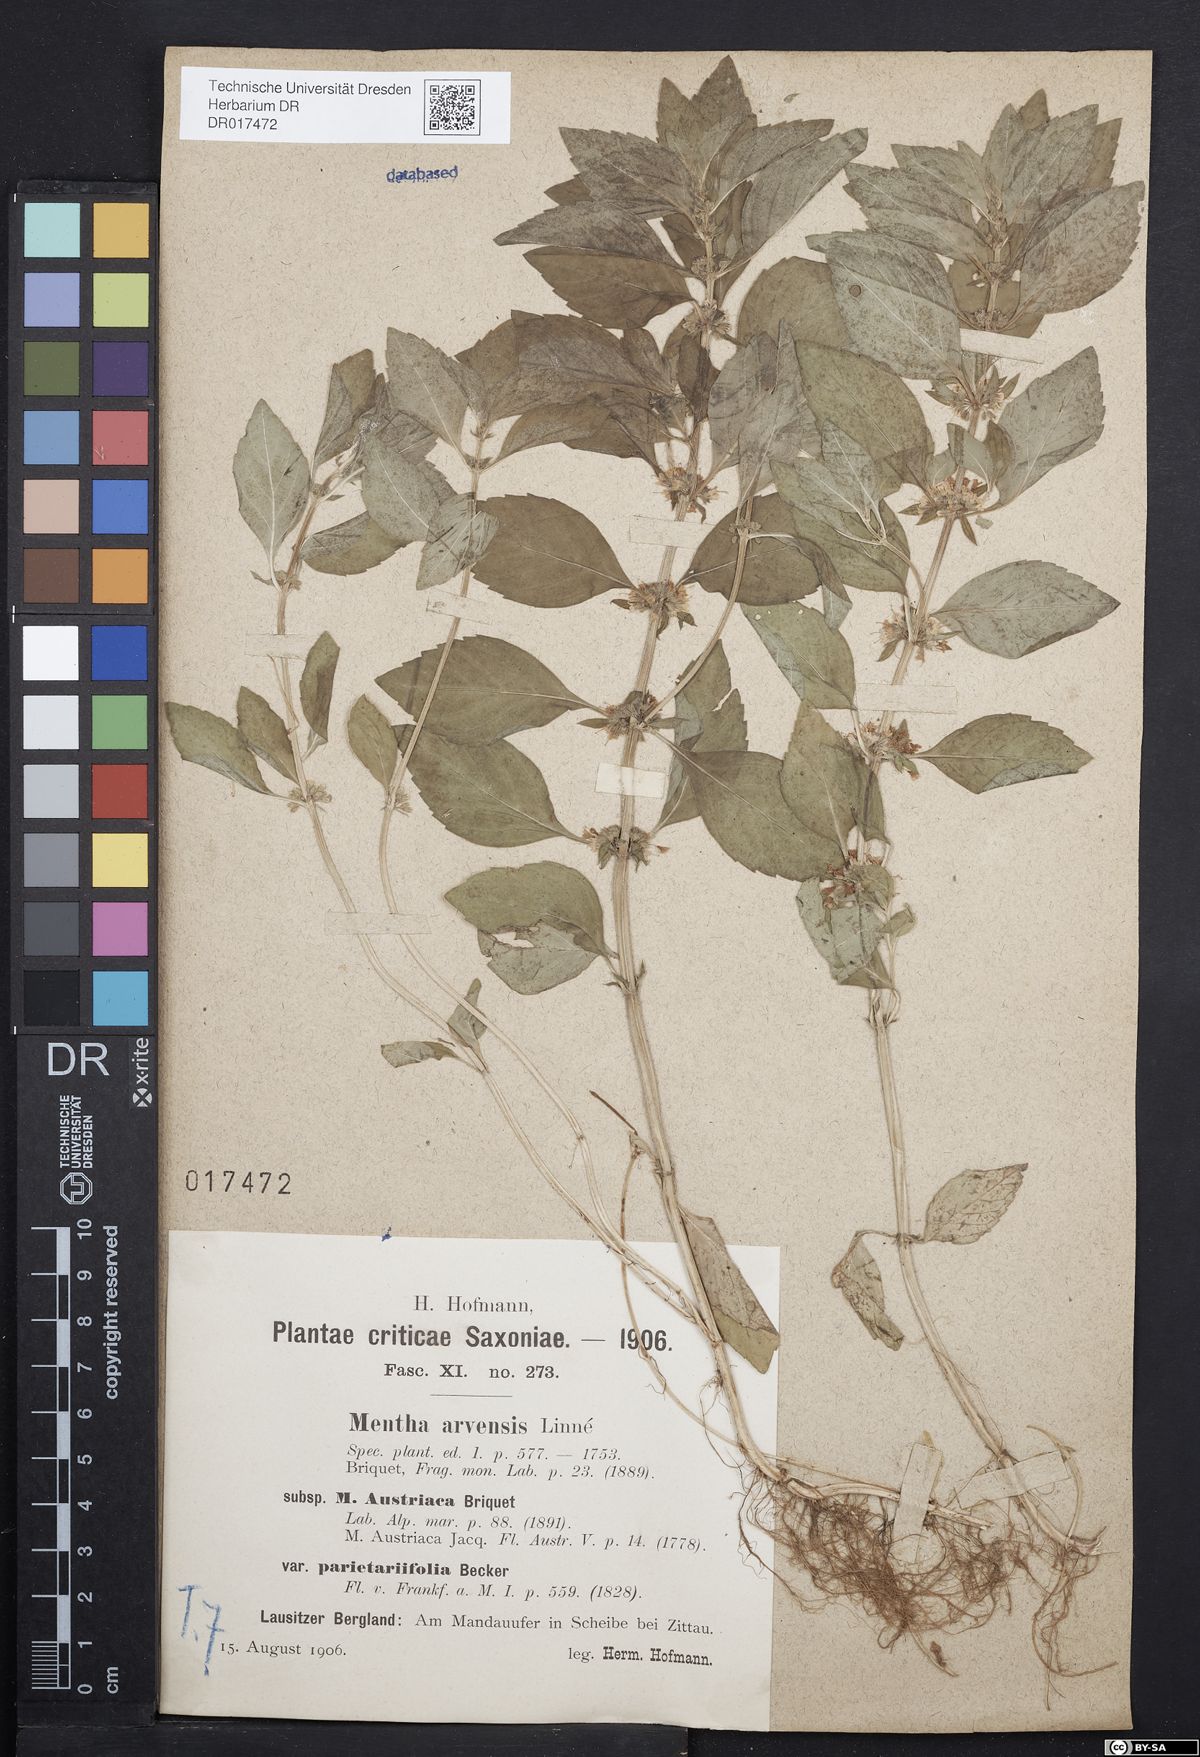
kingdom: Plantae
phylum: Tracheophyta
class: Magnoliopsida
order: Lamiales
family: Lamiaceae
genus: Mentha
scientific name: Mentha arvensis
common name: Corn mint
